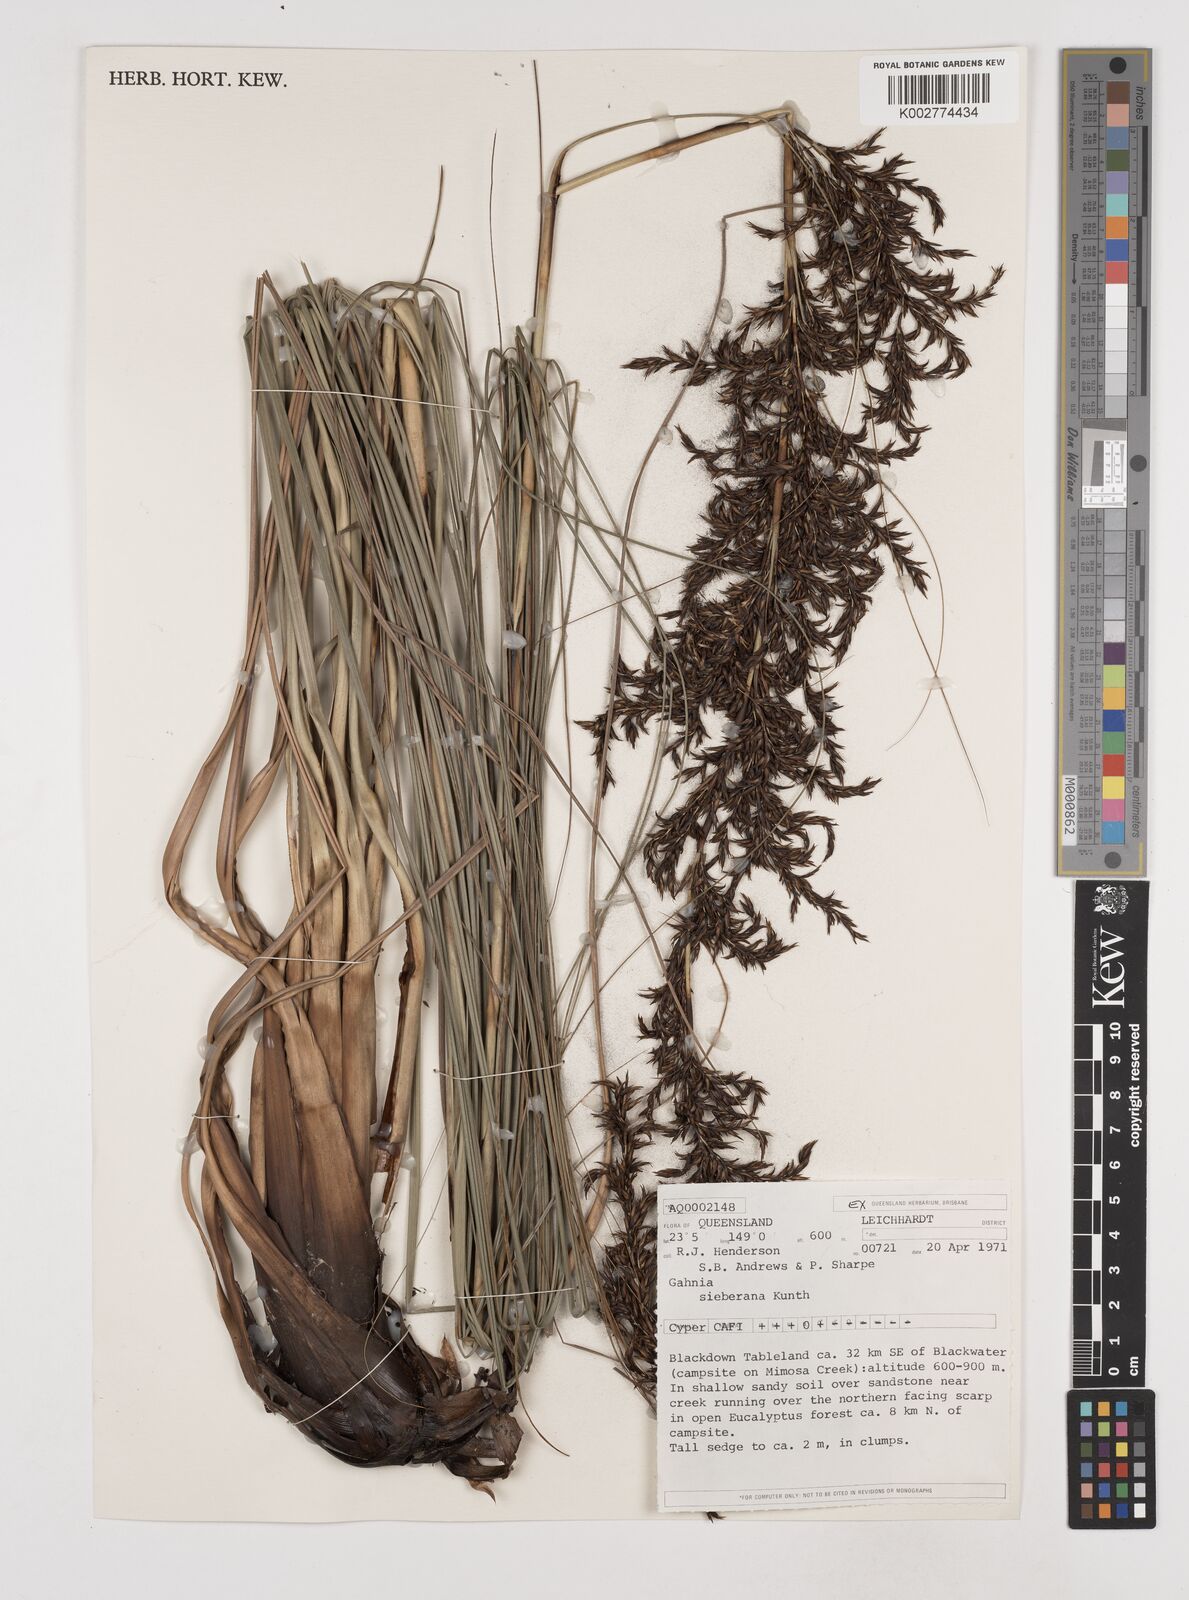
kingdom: Plantae
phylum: Tracheophyta
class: Liliopsida
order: Poales
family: Cyperaceae
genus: Gahnia
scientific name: Gahnia sieberiana
